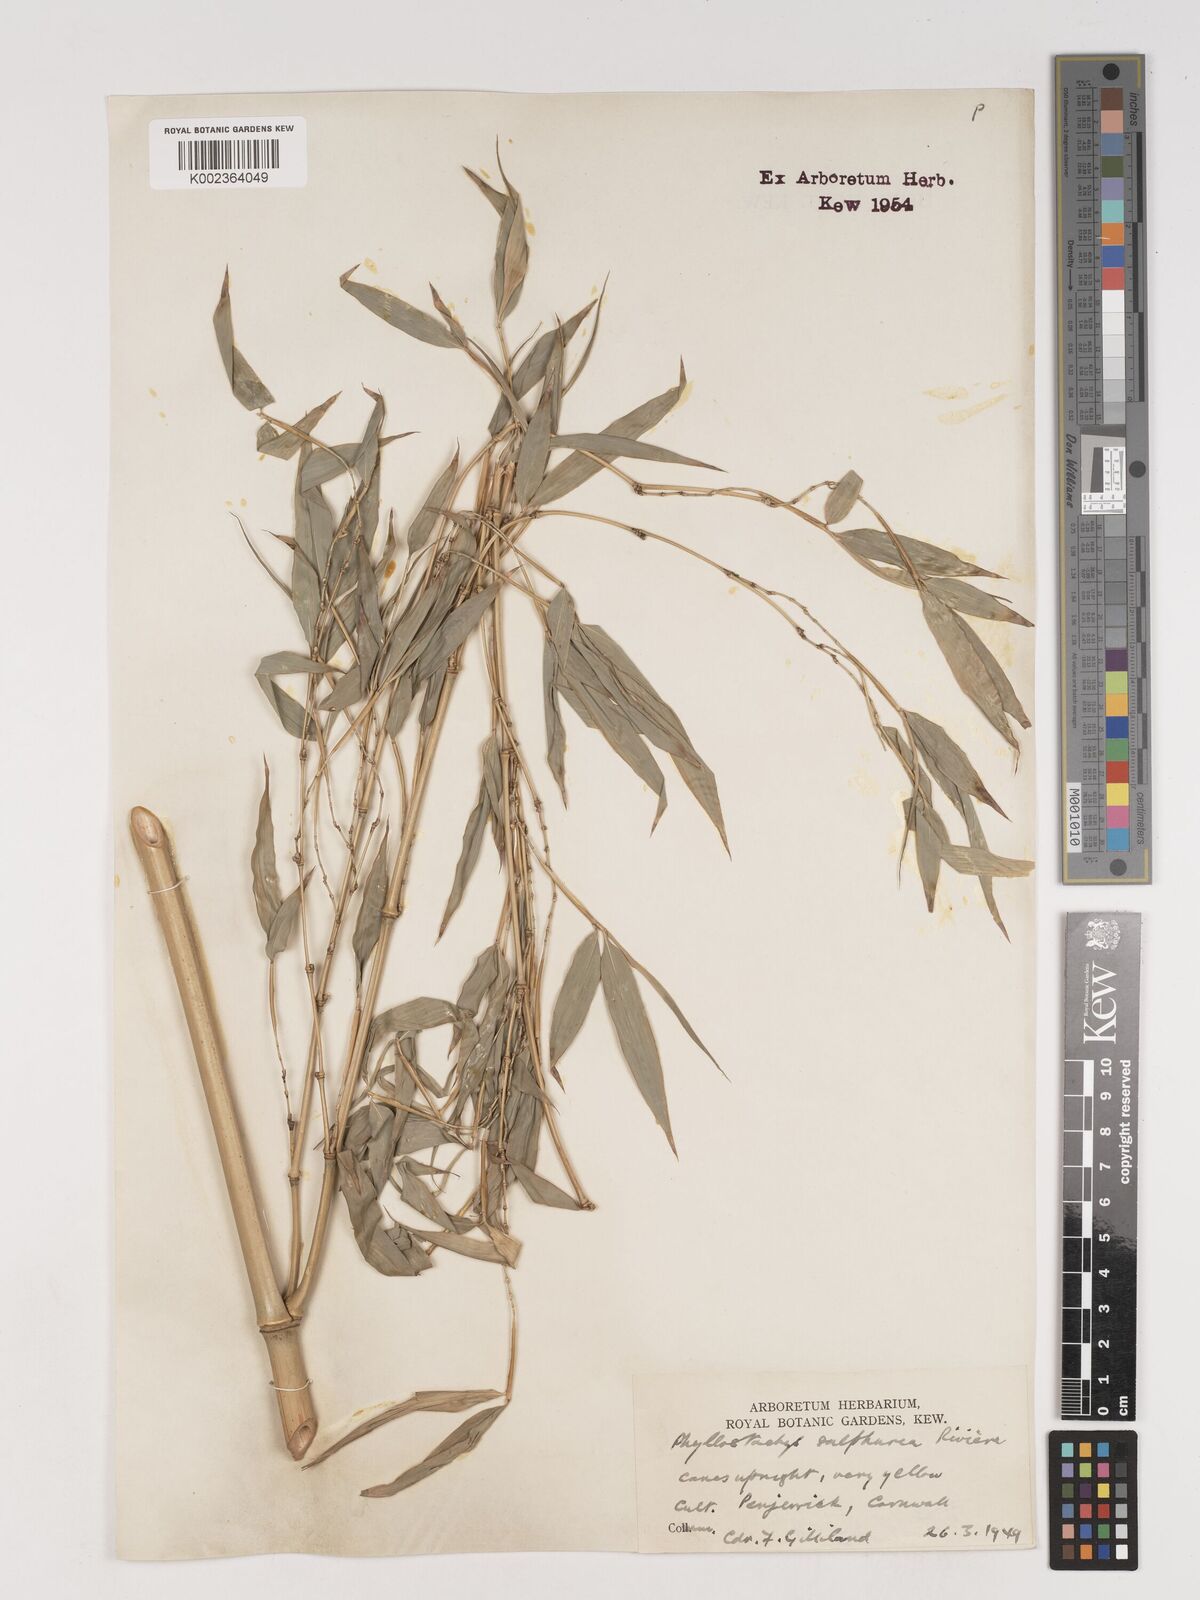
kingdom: Plantae
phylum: Tracheophyta
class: Liliopsida
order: Poales
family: Poaceae
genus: Phyllostachys
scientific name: Phyllostachys sulphurea
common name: Sulphur bamboo
